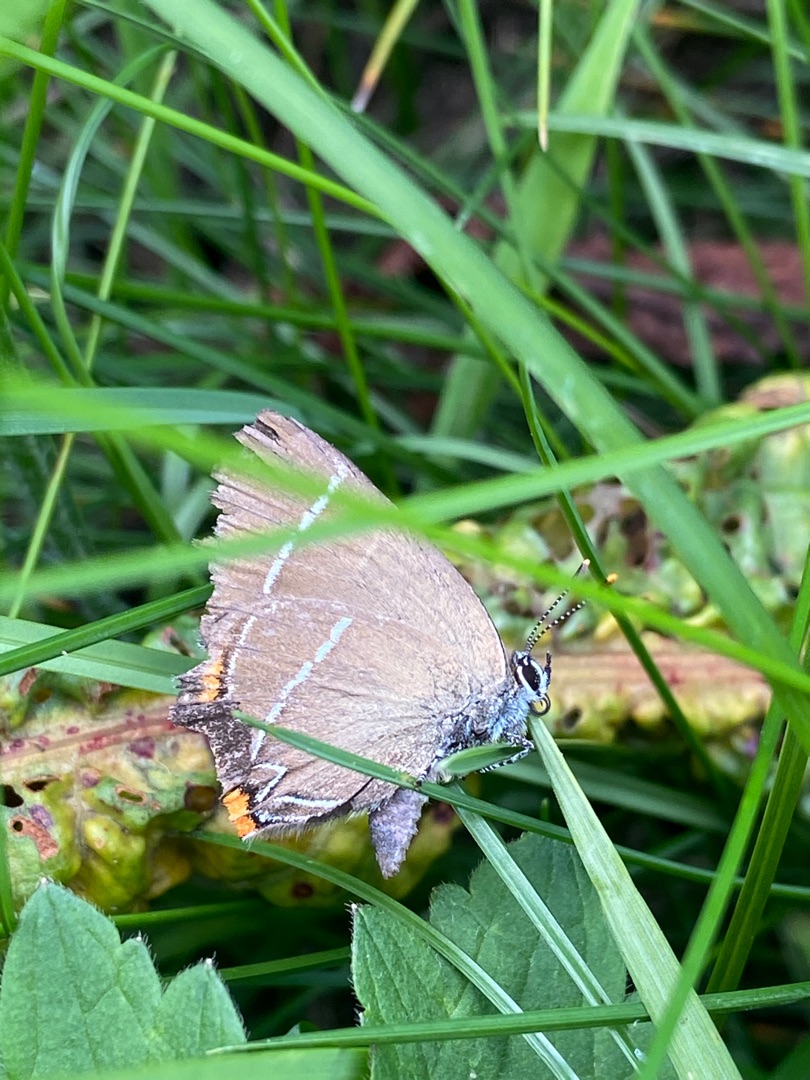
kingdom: Animalia
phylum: Arthropoda
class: Insecta
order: Lepidoptera
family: Lycaenidae
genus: Satyrium
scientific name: Satyrium w-album
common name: Det hvide W
